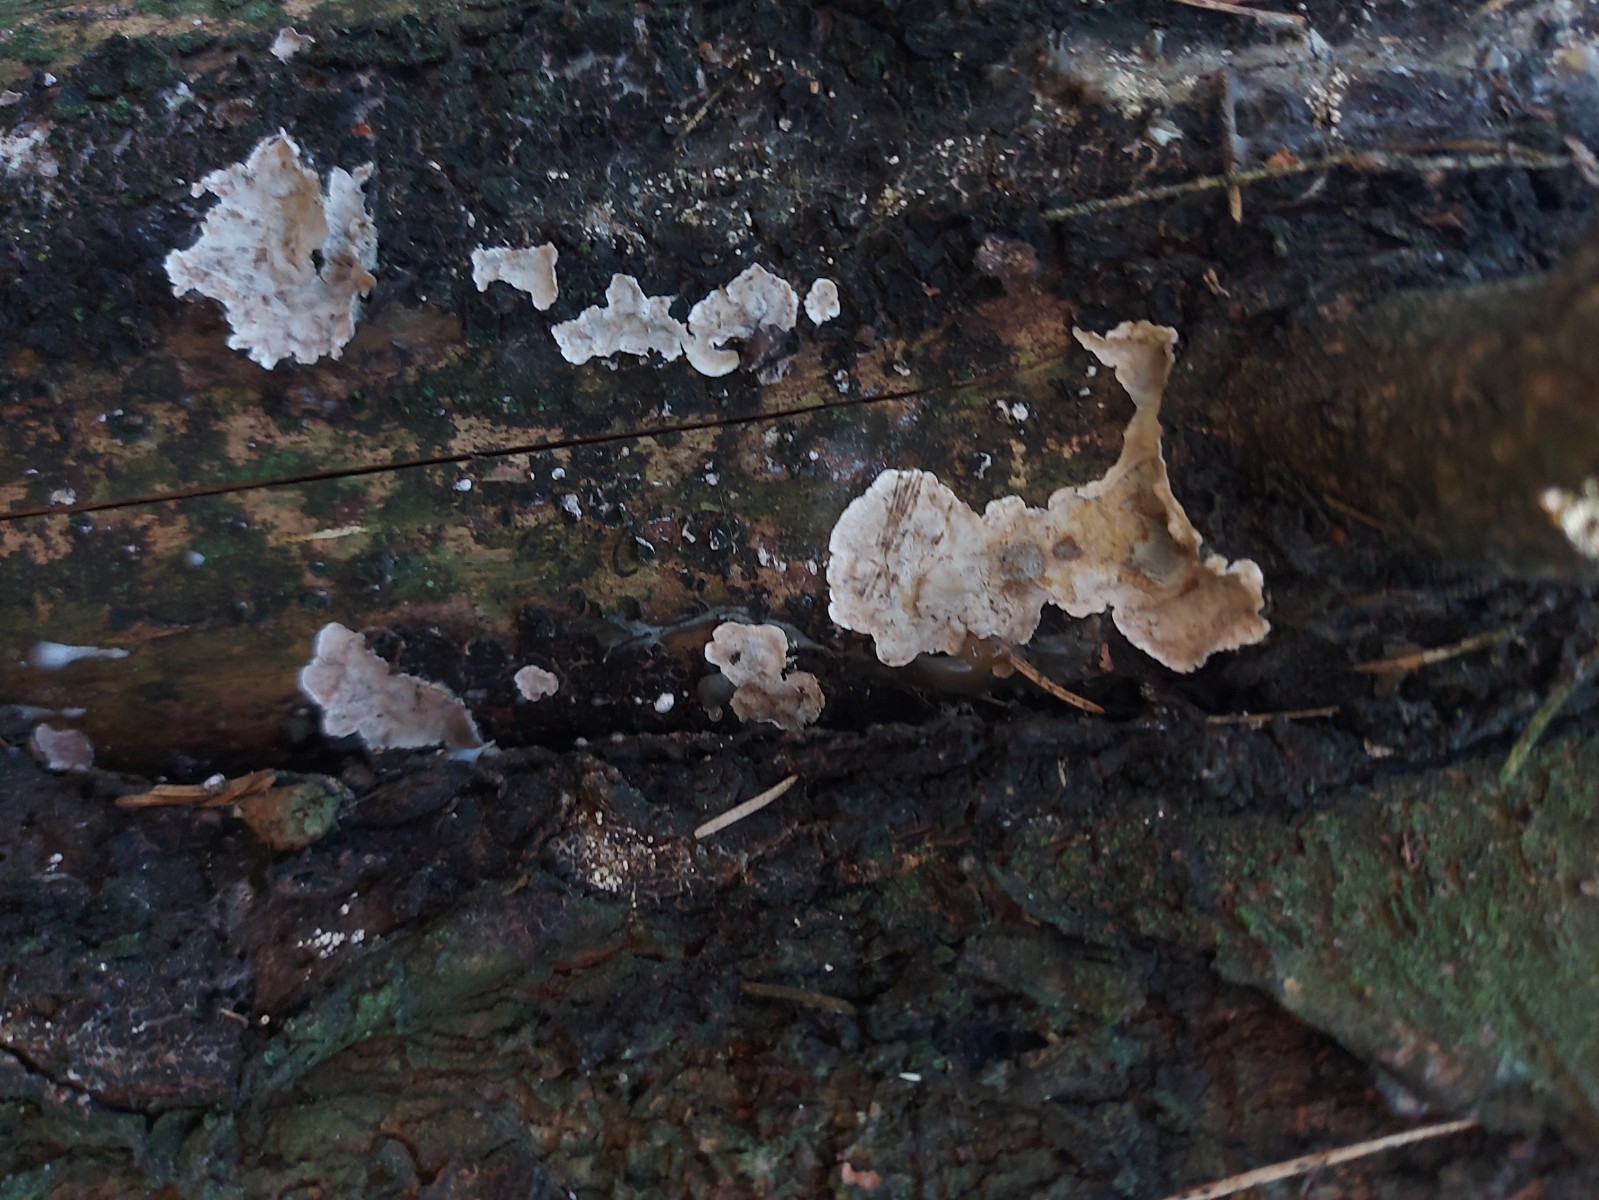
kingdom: Fungi
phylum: Basidiomycota
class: Agaricomycetes
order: Russulales
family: Stereaceae
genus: Stereum
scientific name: Stereum sanguinolentum
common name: blødende lædersvamp
